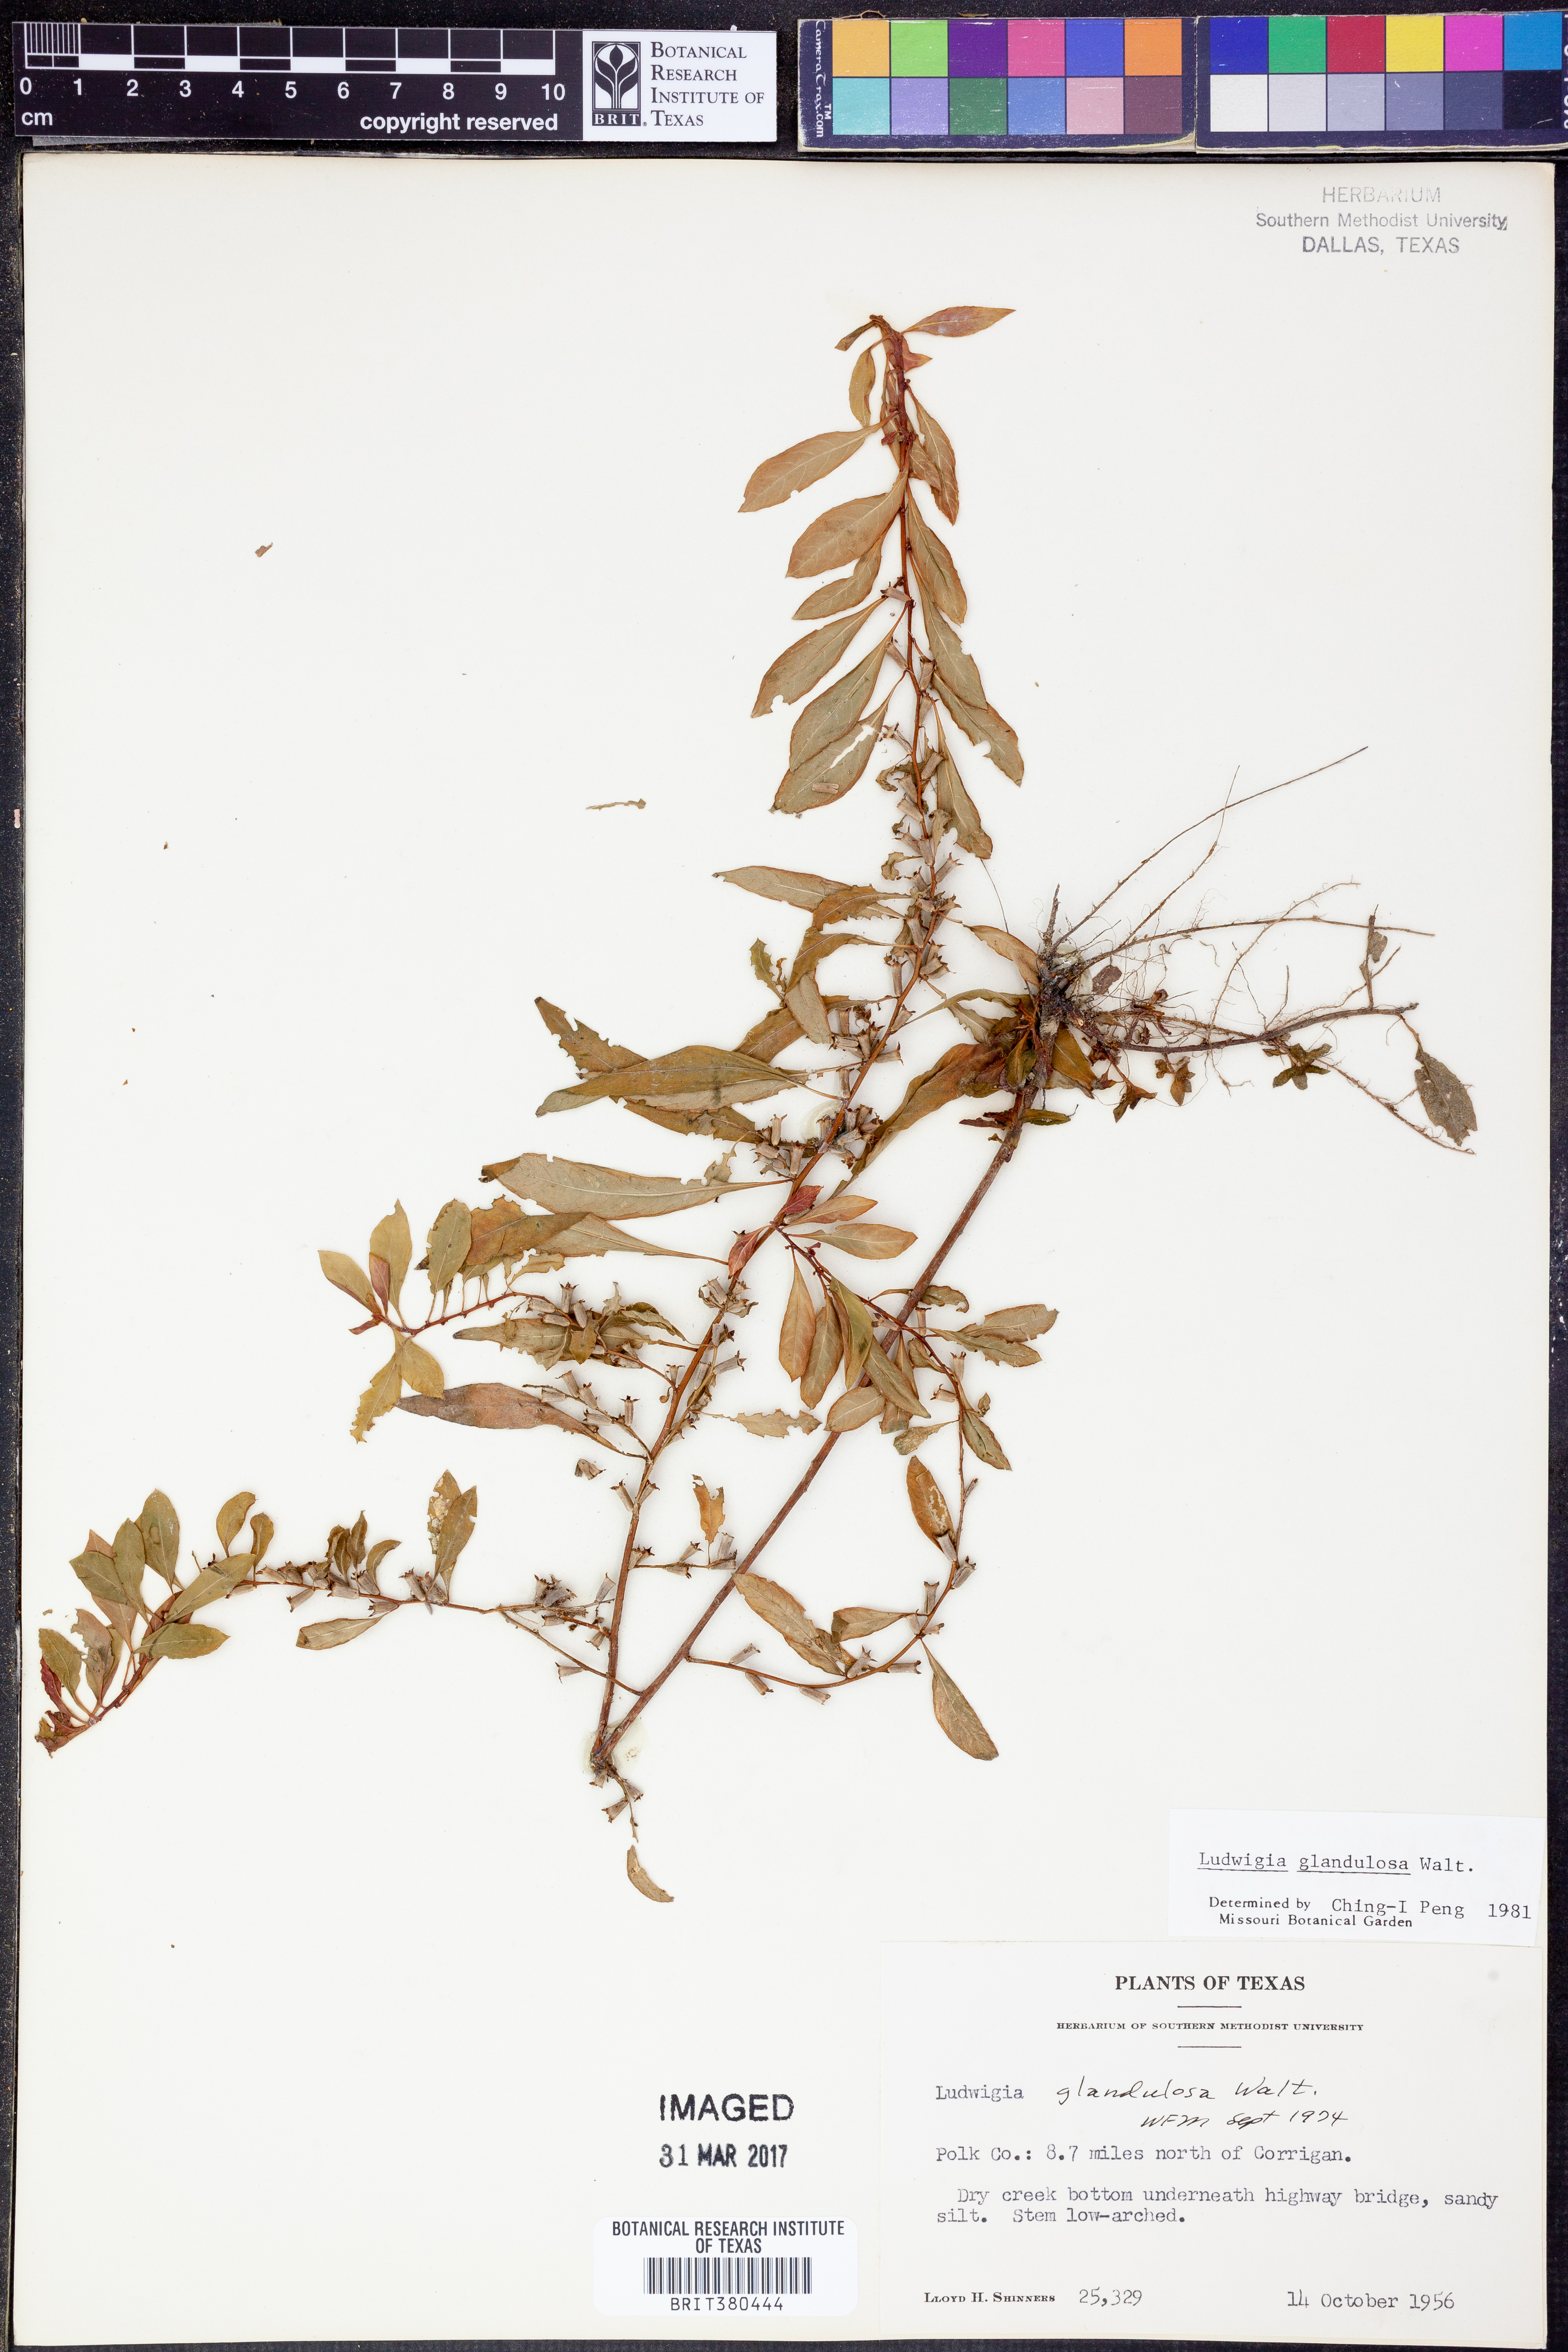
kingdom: Plantae
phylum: Tracheophyta
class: Magnoliopsida
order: Myrtales
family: Onagraceae
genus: Ludwigia
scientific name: Ludwigia glandulosa
